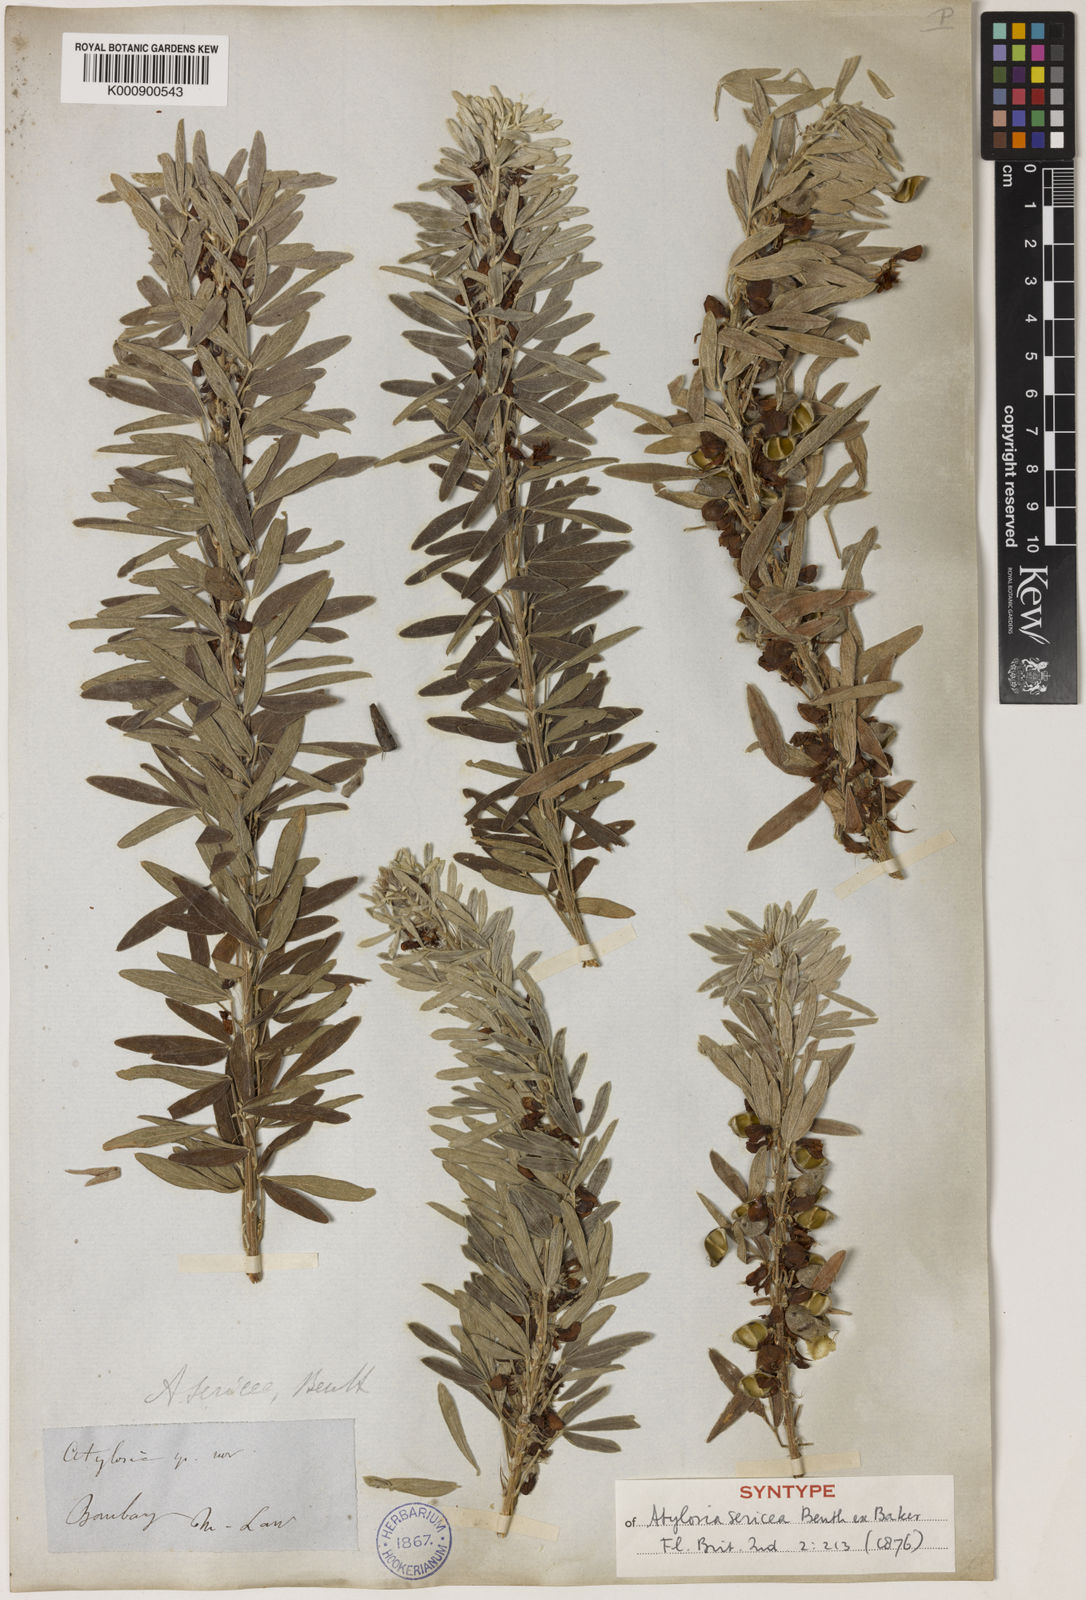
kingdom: Plantae
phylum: Tracheophyta
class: Magnoliopsida
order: Fabales
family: Fabaceae
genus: Cajanus
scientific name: Cajanus sericeus
